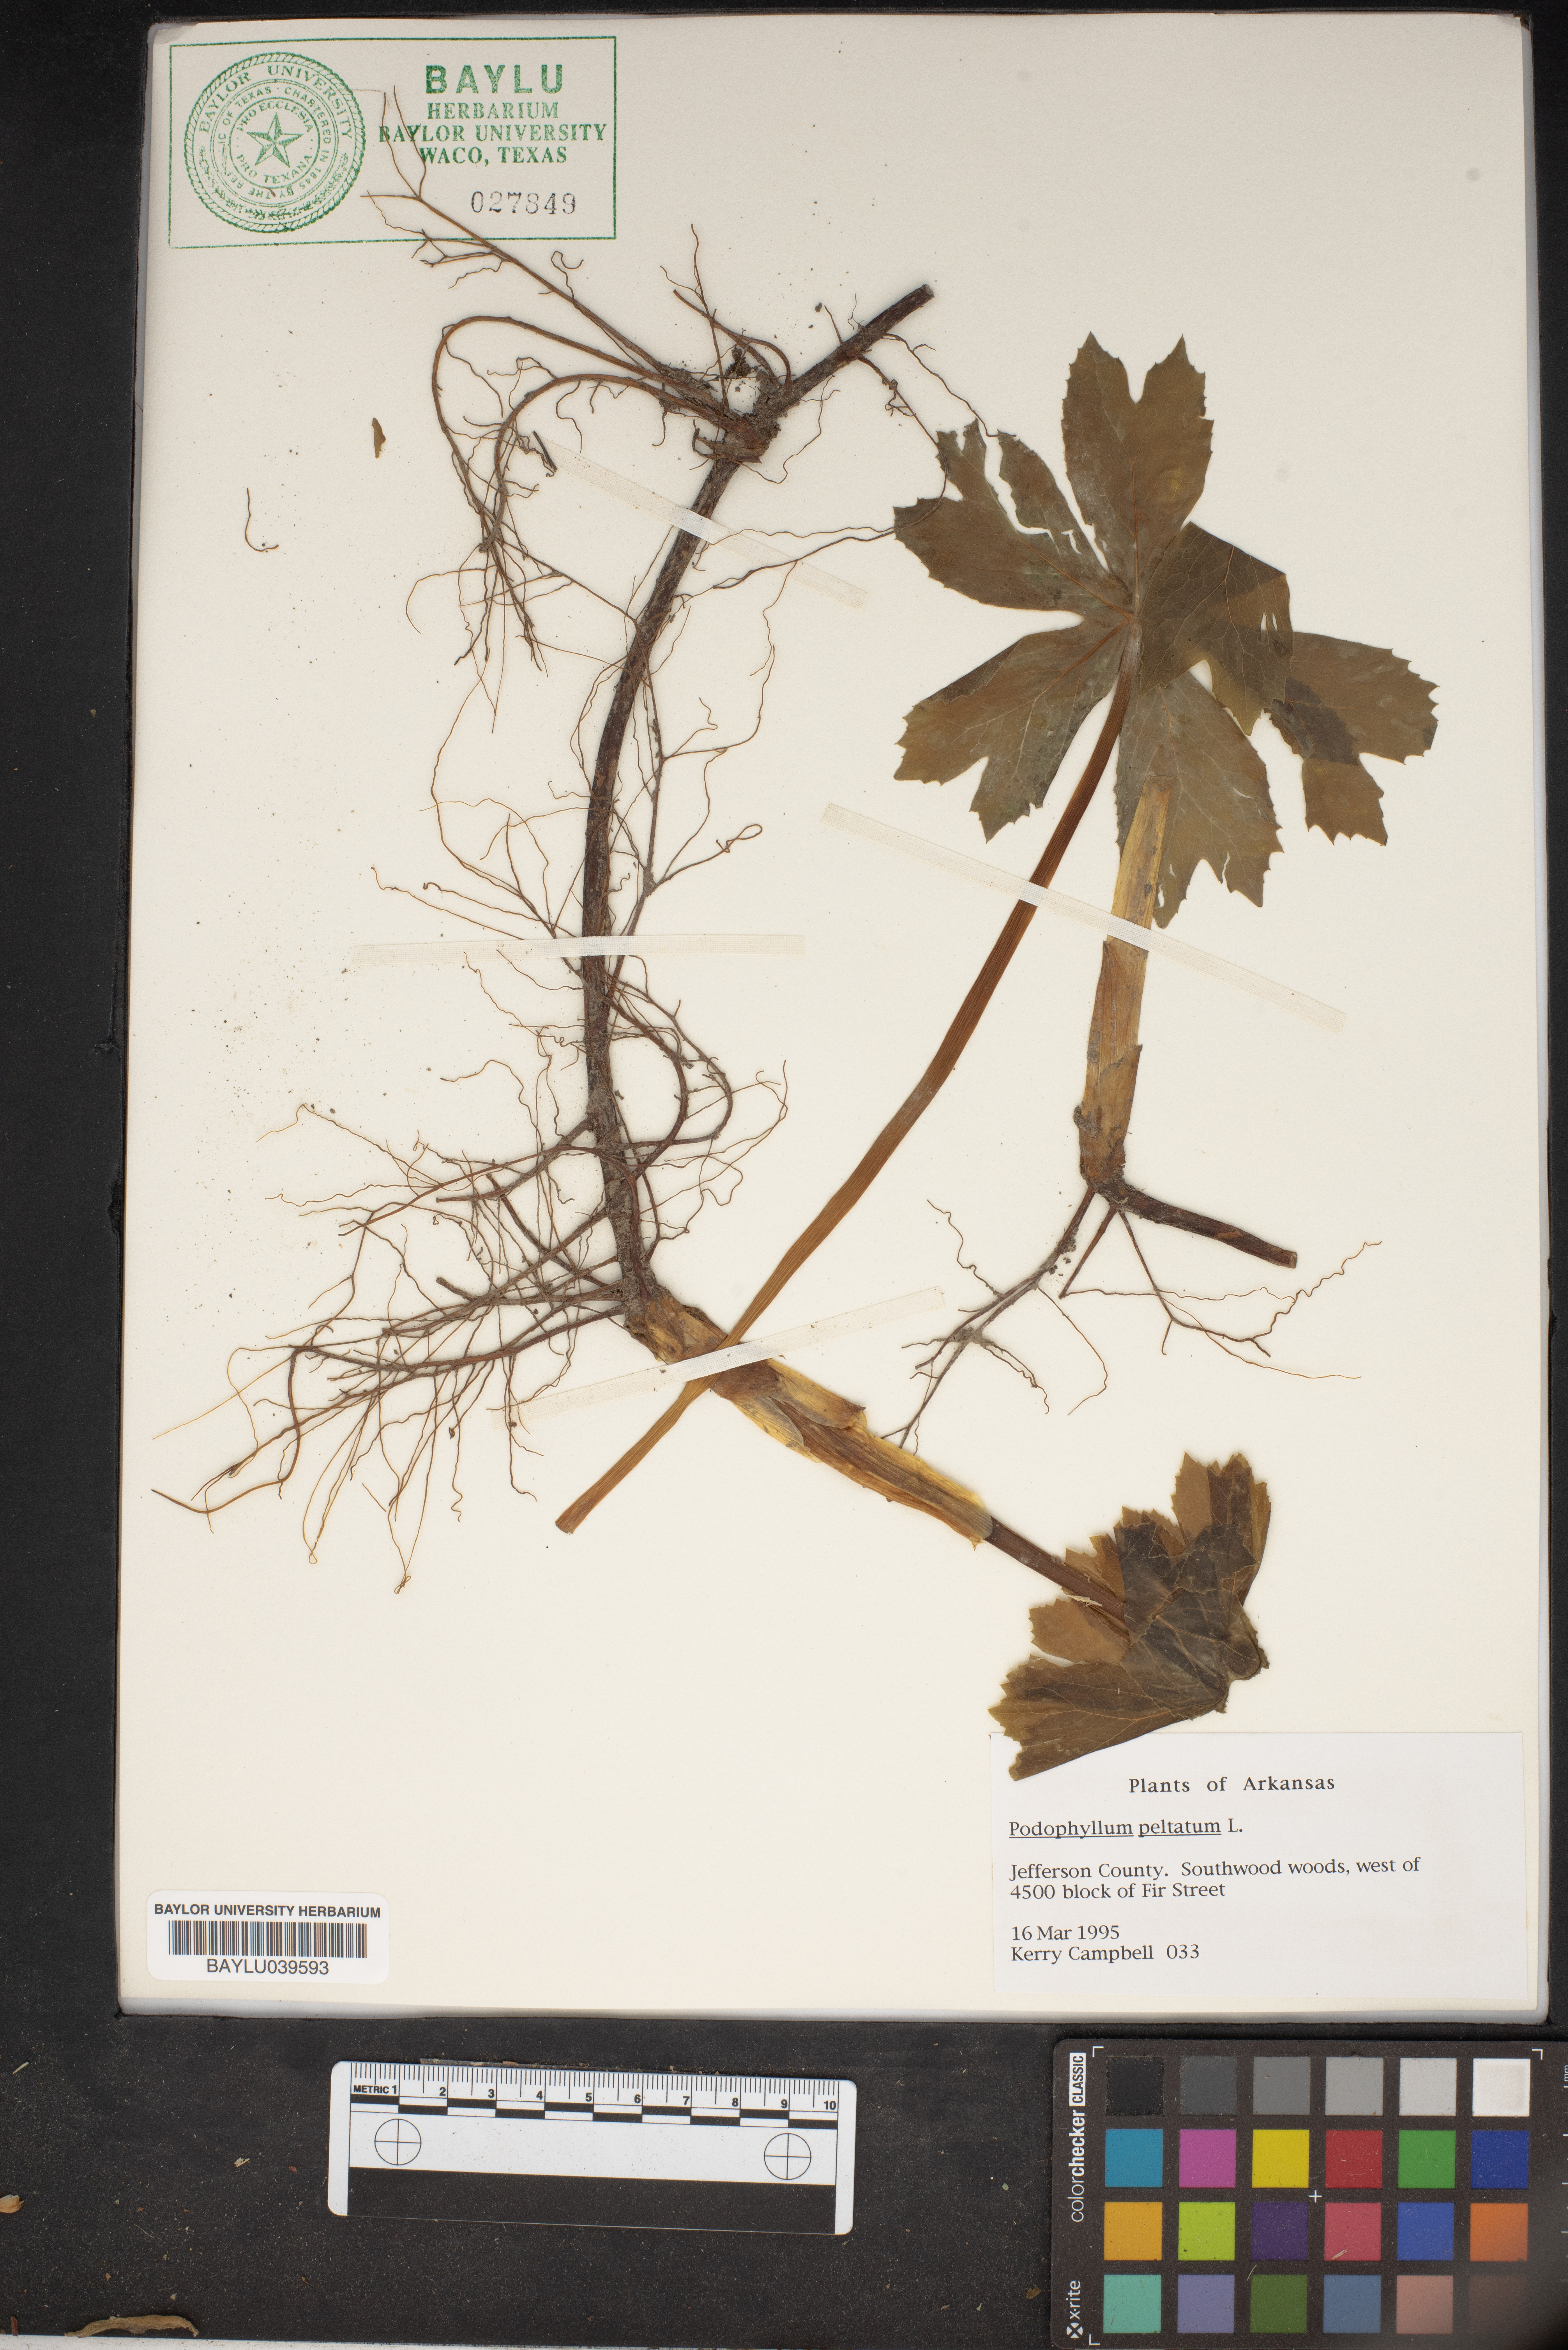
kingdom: Plantae
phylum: Tracheophyta
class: Magnoliopsida
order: Ranunculales
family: Berberidaceae
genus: Podophyllum
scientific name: Podophyllum peltatum
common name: Wild mandrake
